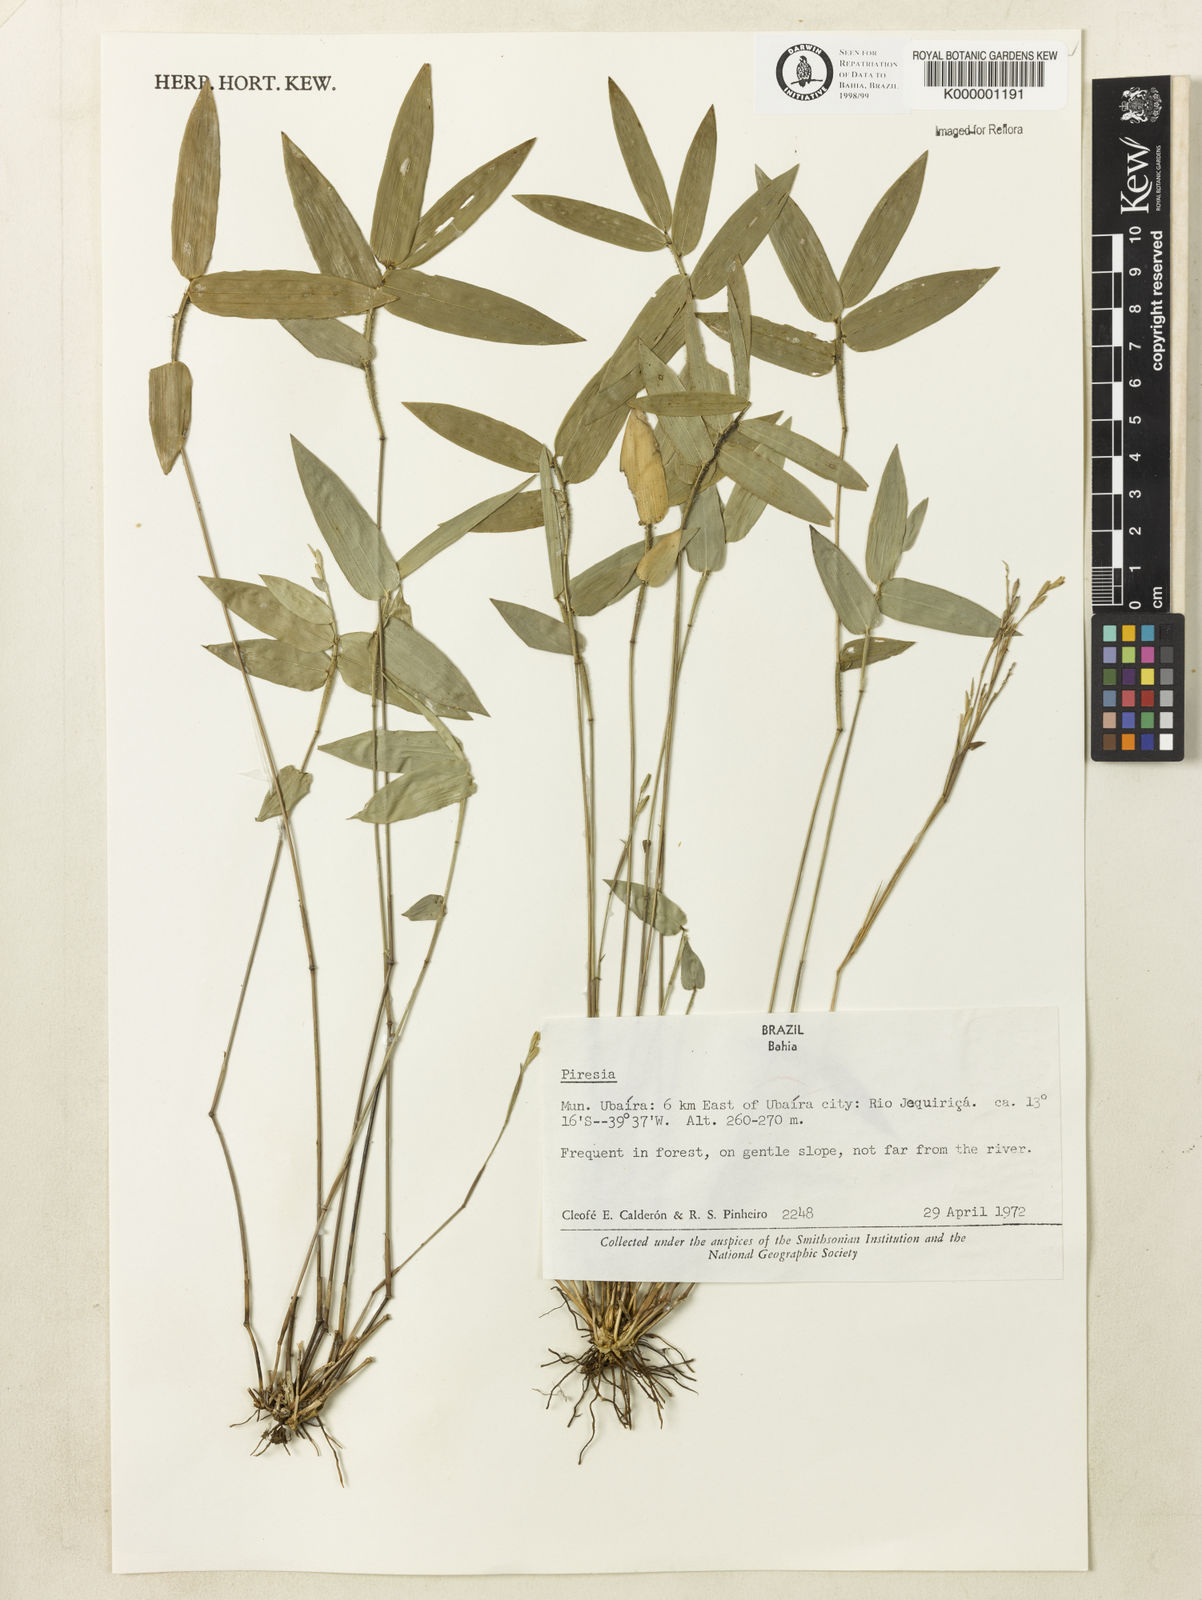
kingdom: Plantae
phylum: Tracheophyta
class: Liliopsida
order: Poales
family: Poaceae
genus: Piresia
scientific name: Piresia
